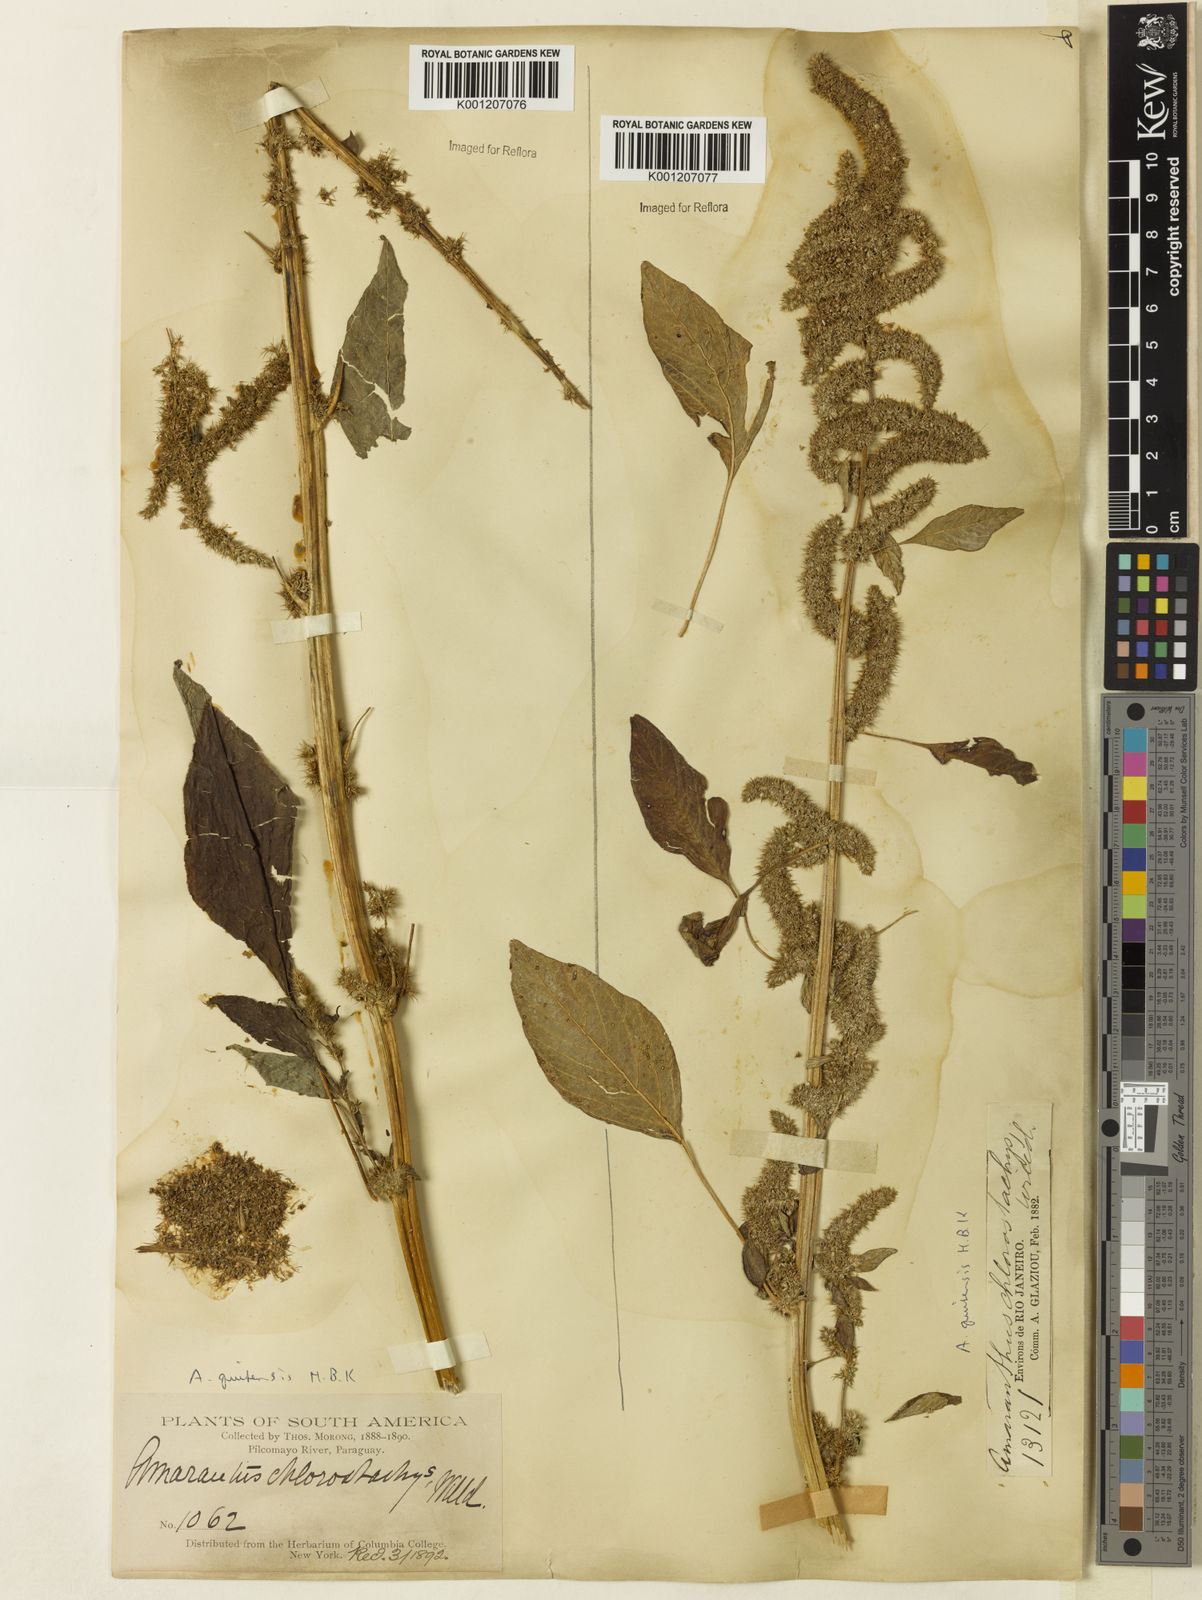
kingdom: Plantae
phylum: Tracheophyta
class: Magnoliopsida
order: Caryophyllales
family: Amaranthaceae
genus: Amaranthus
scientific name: Amaranthus quitensis
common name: Mucronate amaranth
